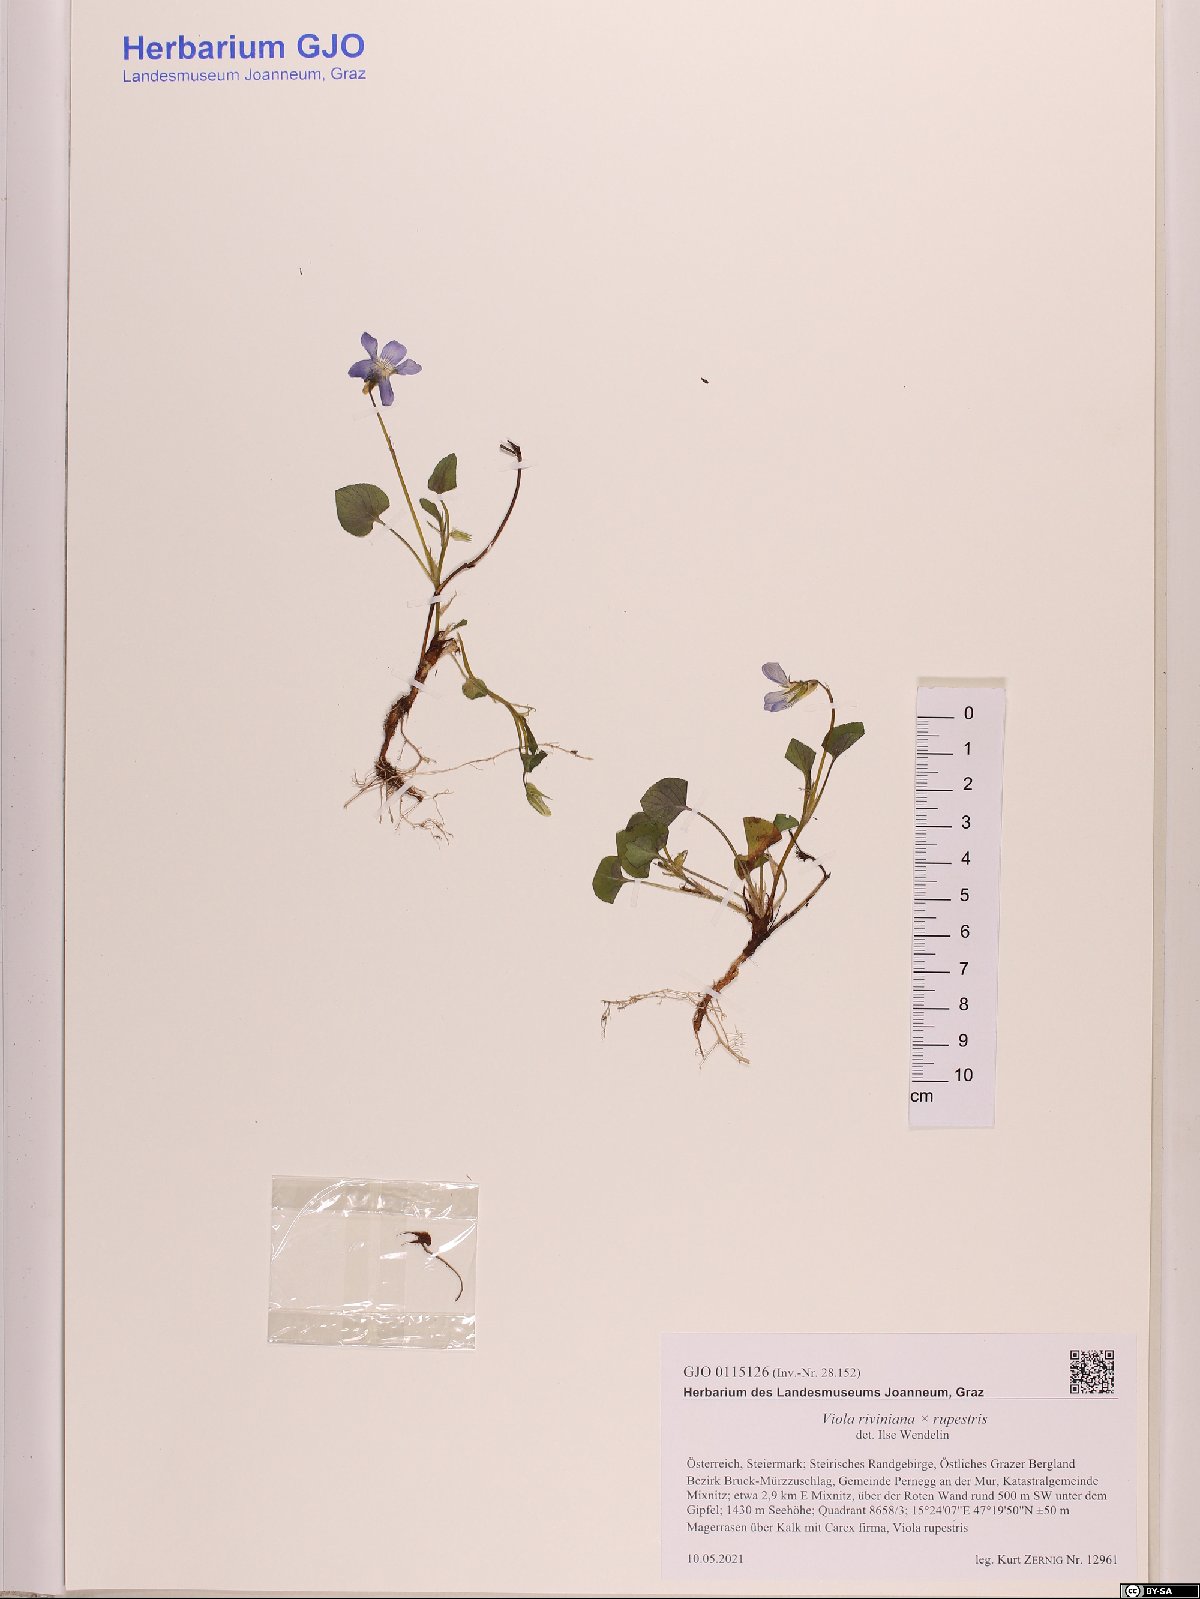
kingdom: Plantae
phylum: Tracheophyta
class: Magnoliopsida
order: Malpighiales
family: Violaceae
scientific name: Violaceae
